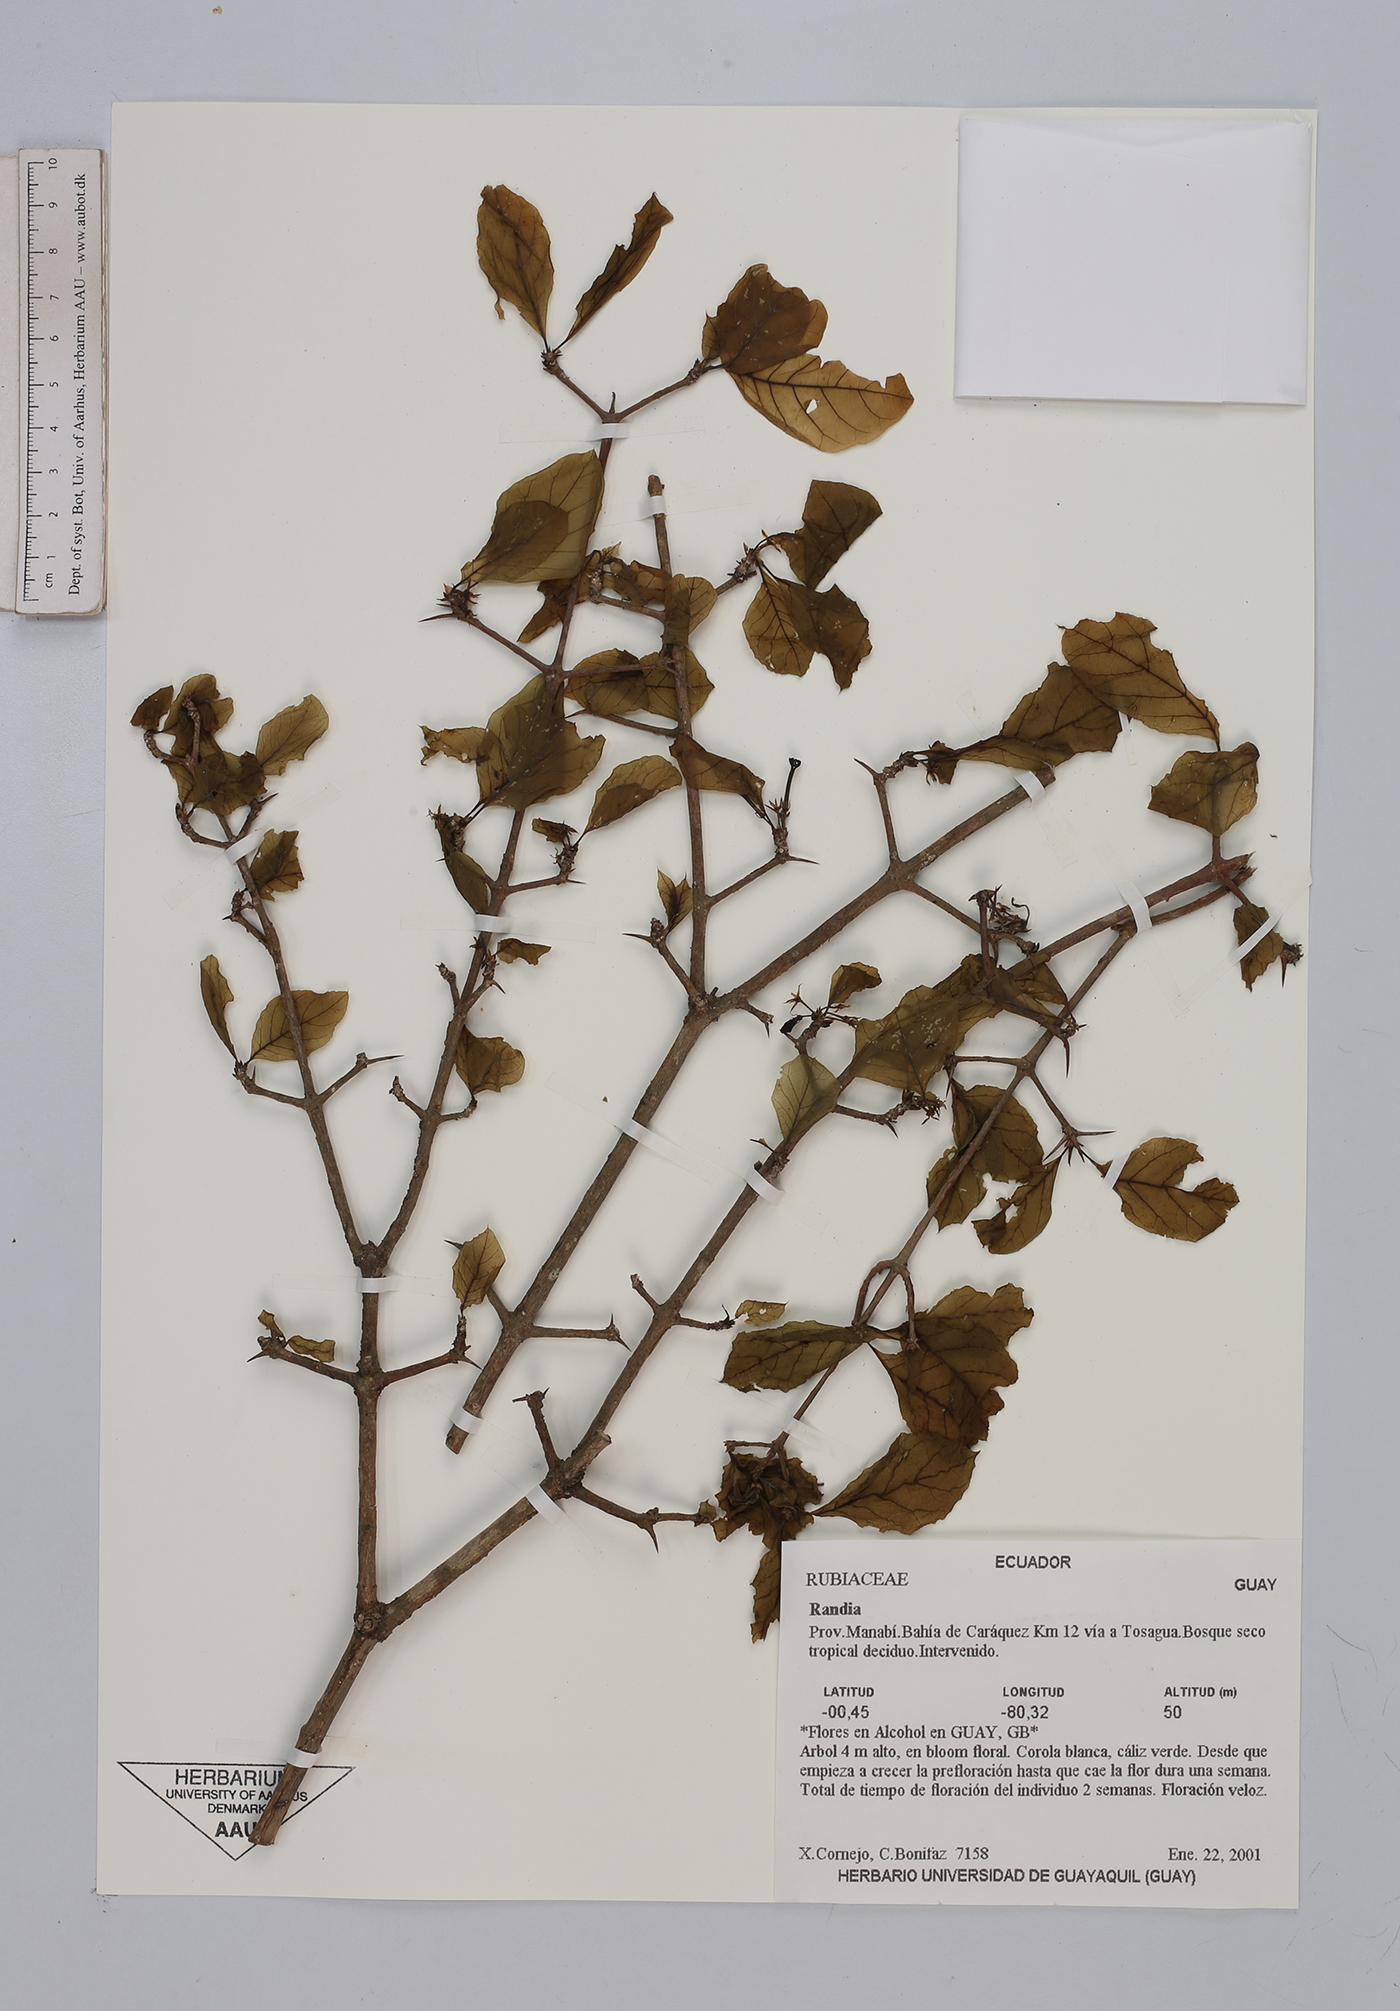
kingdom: Plantae
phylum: Tracheophyta
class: Magnoliopsida
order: Gentianales
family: Rubiaceae
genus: Randia
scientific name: Randia
